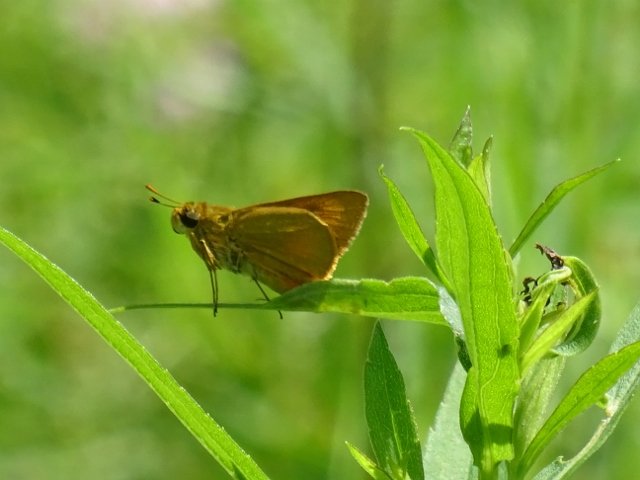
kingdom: Animalia
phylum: Arthropoda
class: Insecta
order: Lepidoptera
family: Hesperiidae
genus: Atrytone
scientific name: Atrytone delaware
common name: Delaware Skipper
